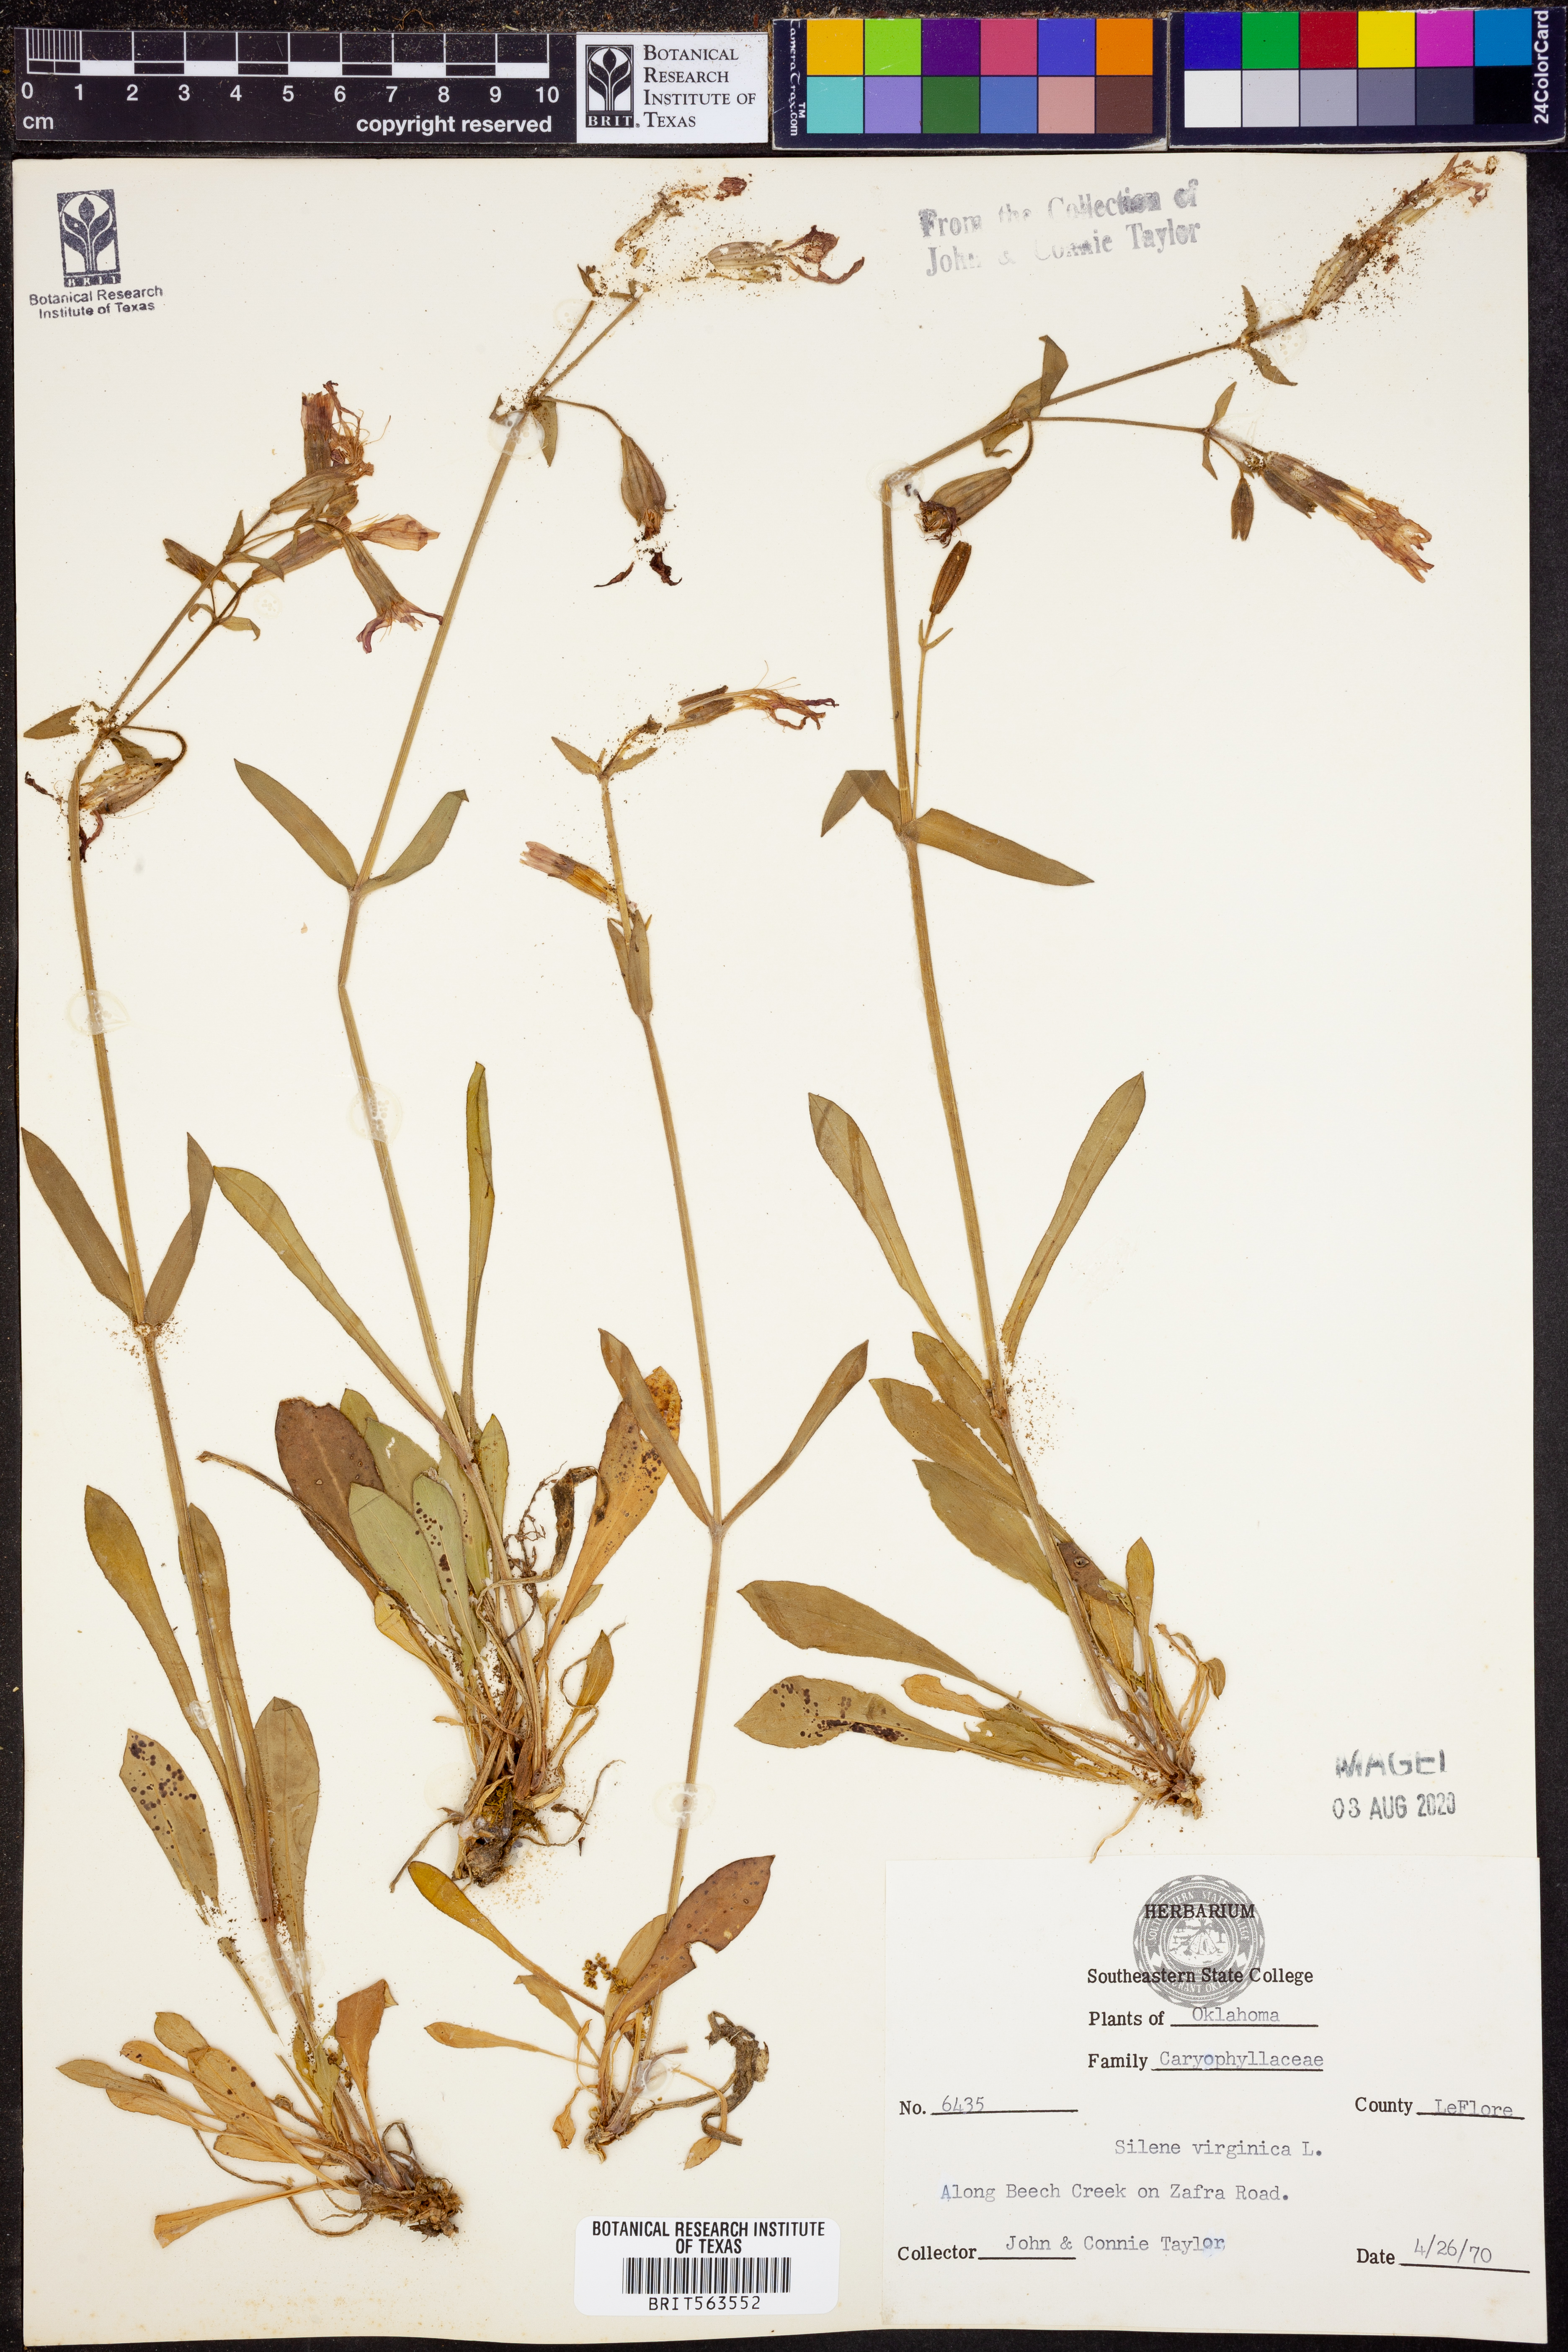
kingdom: Plantae
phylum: Tracheophyta
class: Magnoliopsida
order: Caryophyllales
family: Caryophyllaceae
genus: Silene
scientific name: Silene virginica
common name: Fire-pink
